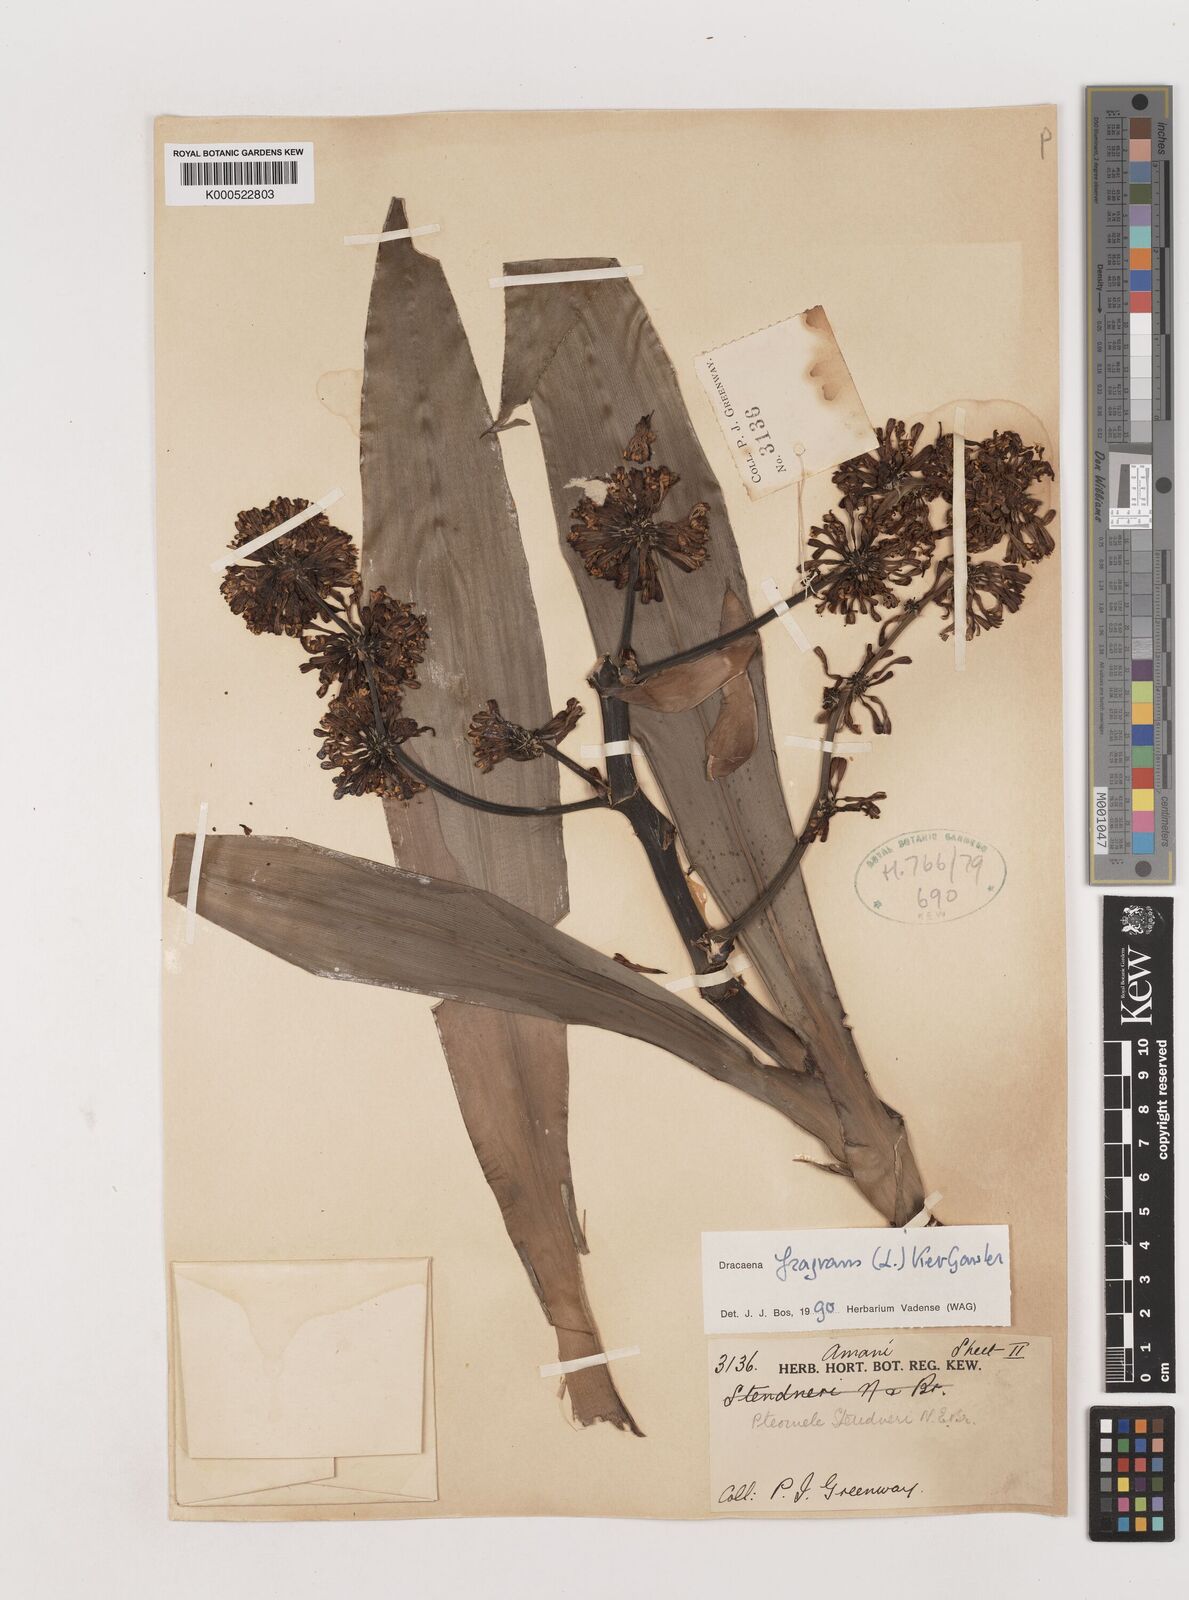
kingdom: Plantae
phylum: Tracheophyta
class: Liliopsida
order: Asparagales
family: Asparagaceae
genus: Dracaena
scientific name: Dracaena fragrans
